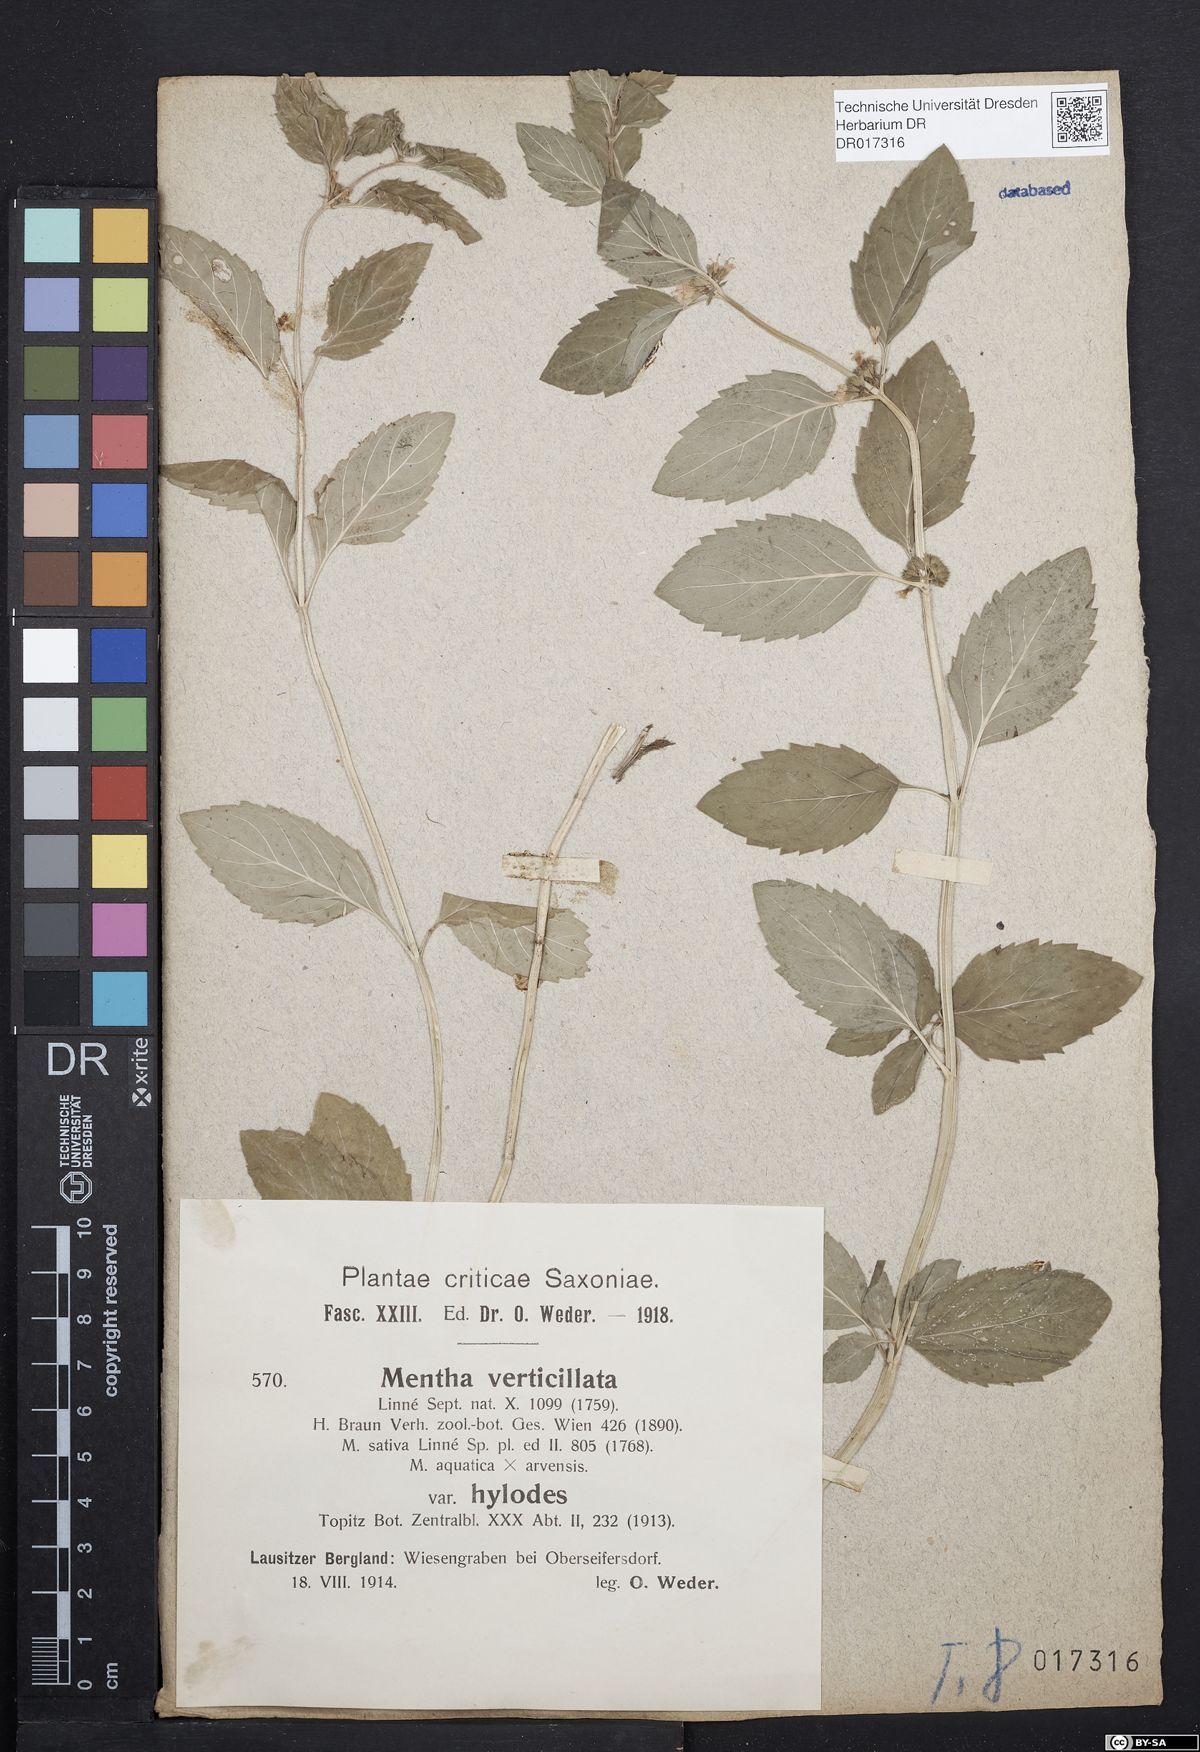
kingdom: Plantae
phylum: Tracheophyta
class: Magnoliopsida
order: Lamiales
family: Lamiaceae
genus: Mentha
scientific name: Mentha verticillata
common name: Mint
